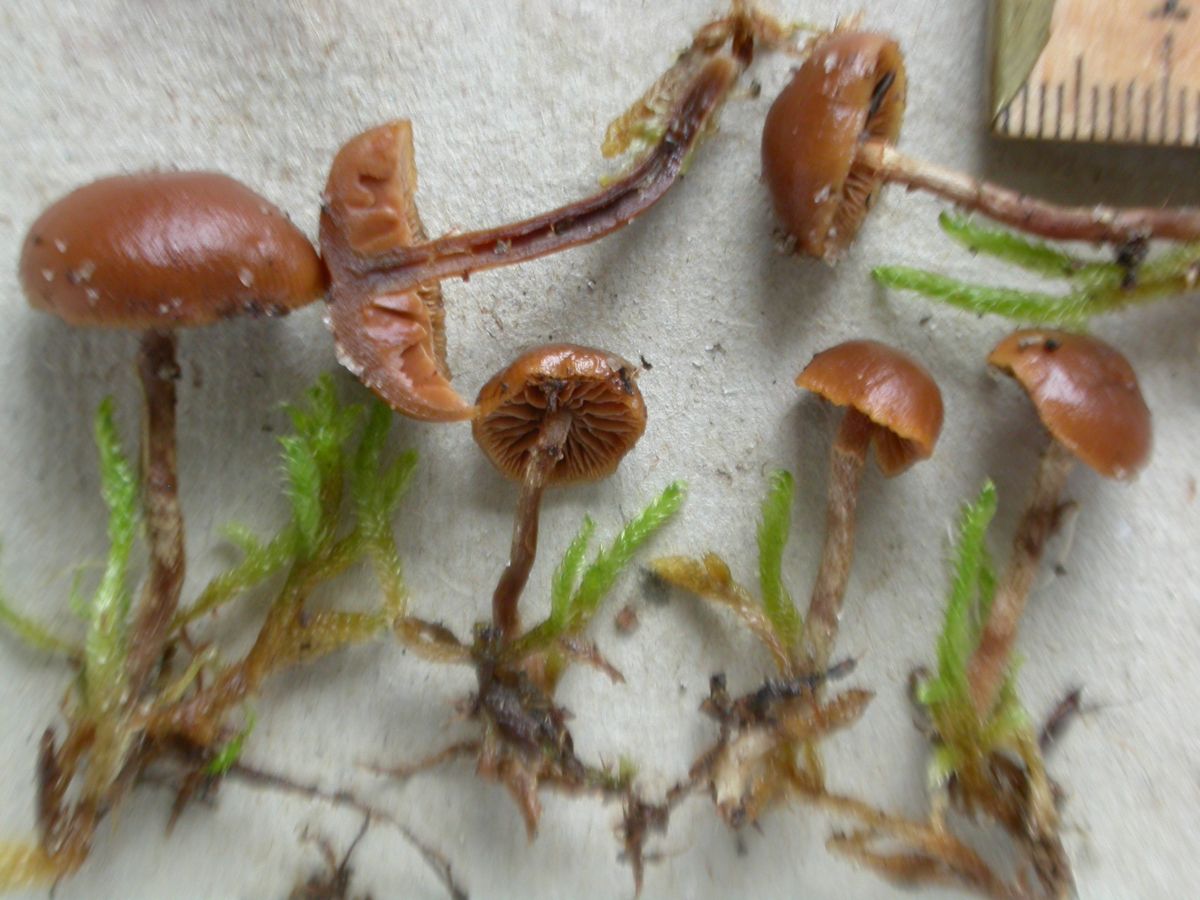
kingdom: Fungi
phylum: Basidiomycota
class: Agaricomycetes
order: Agaricales
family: Hymenogastraceae
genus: Galerina
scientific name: Galerina marginata
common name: randbæltet hjelmhat
